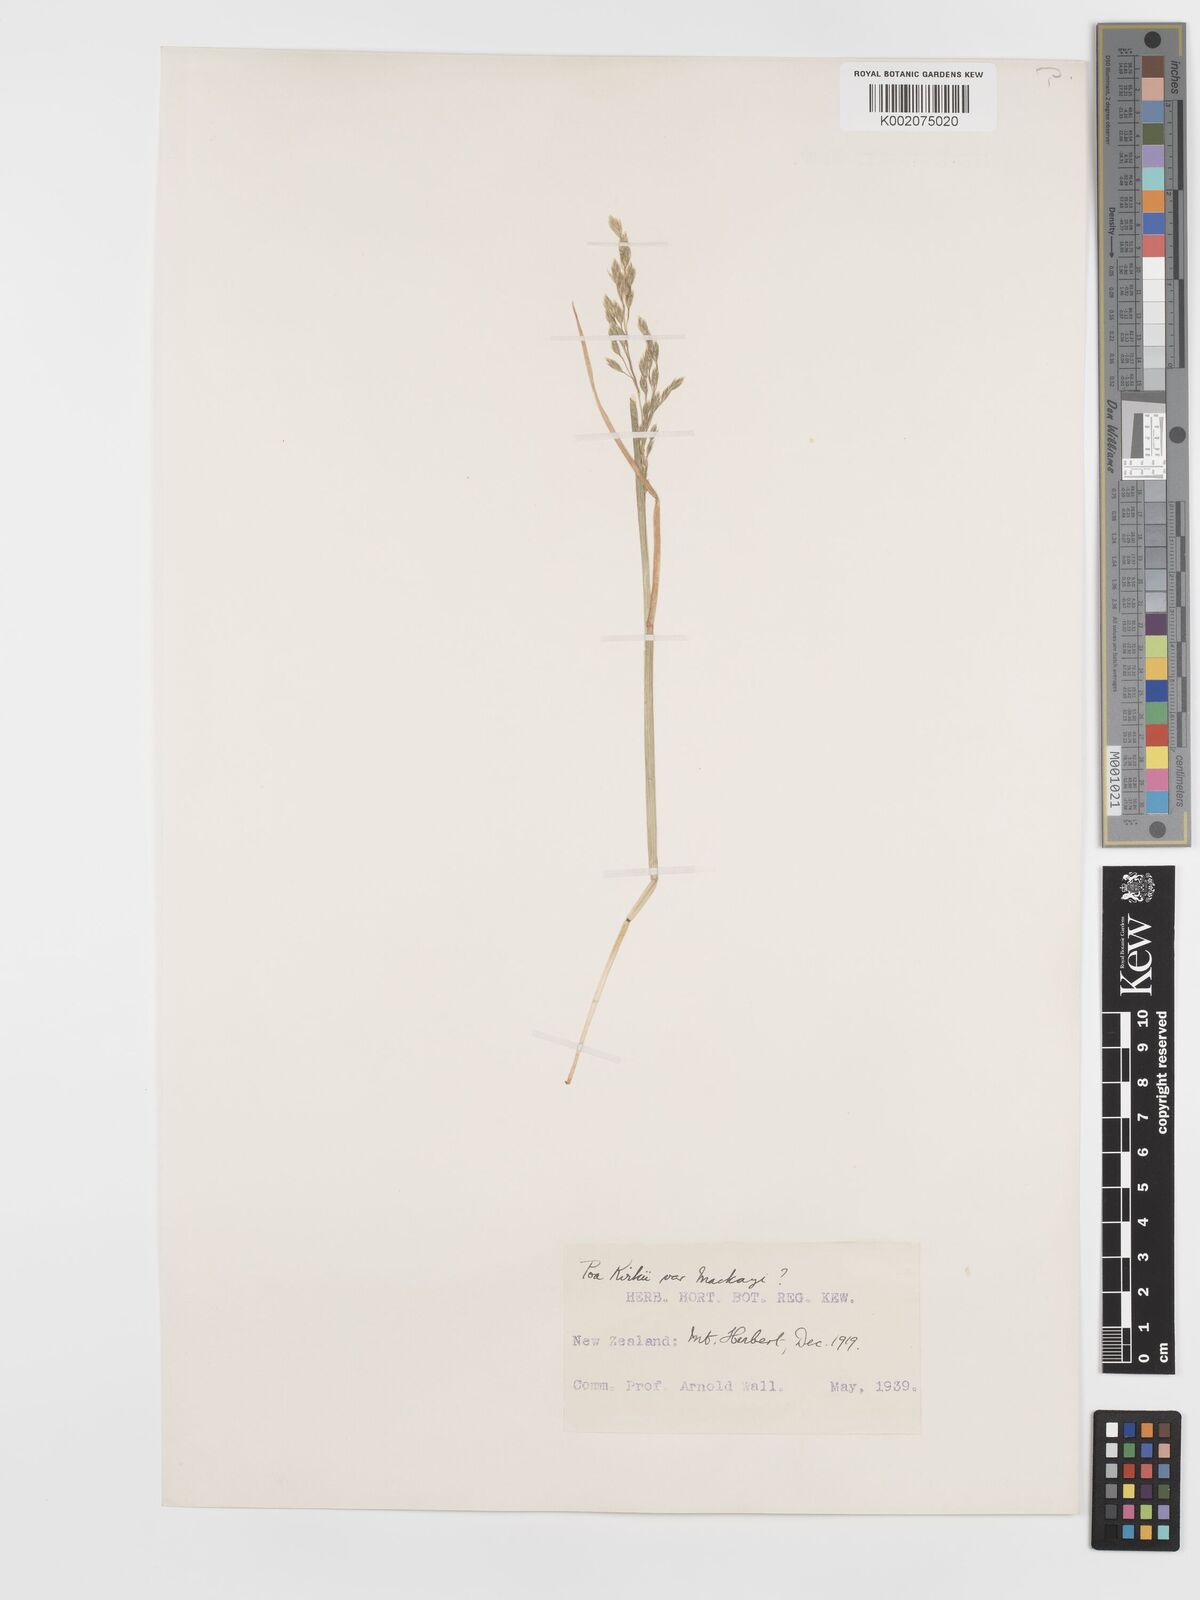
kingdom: Plantae
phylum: Tracheophyta
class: Liliopsida
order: Poales
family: Poaceae
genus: Poa
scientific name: Poa kirkii
